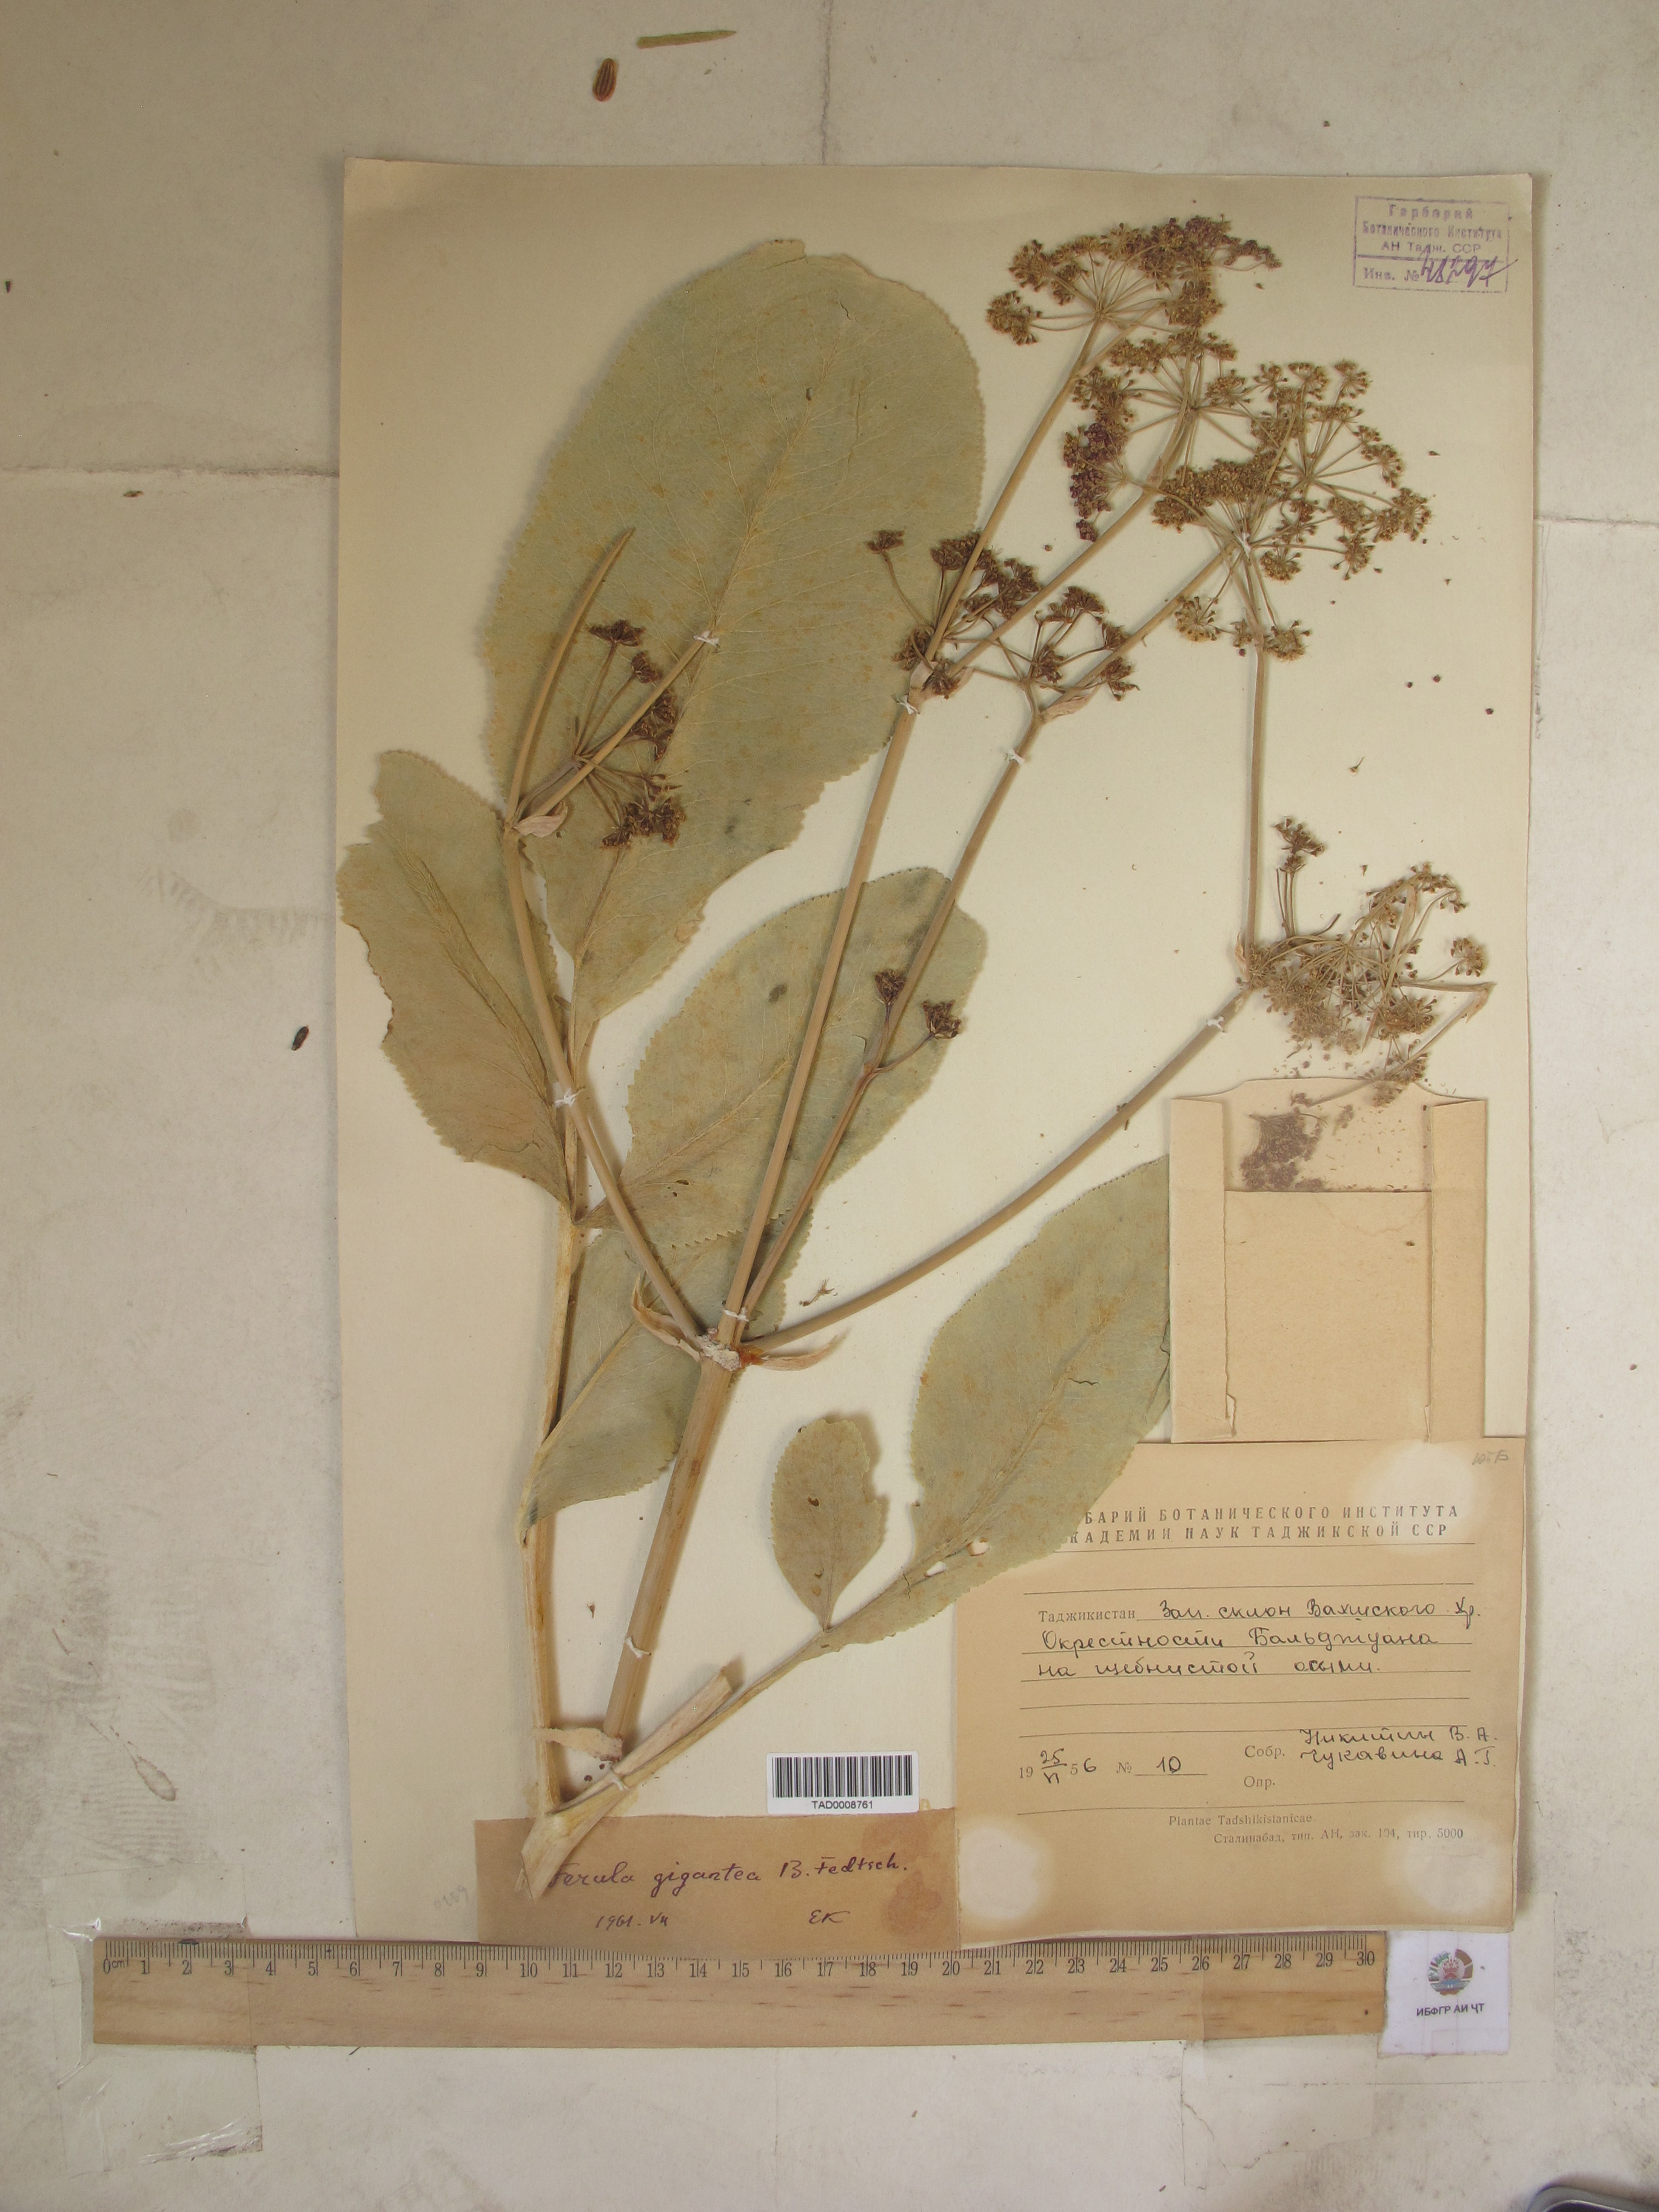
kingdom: Plantae
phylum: Tracheophyta
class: Magnoliopsida
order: Apiales
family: Apiaceae
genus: Ferula
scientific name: Ferula gigantea
